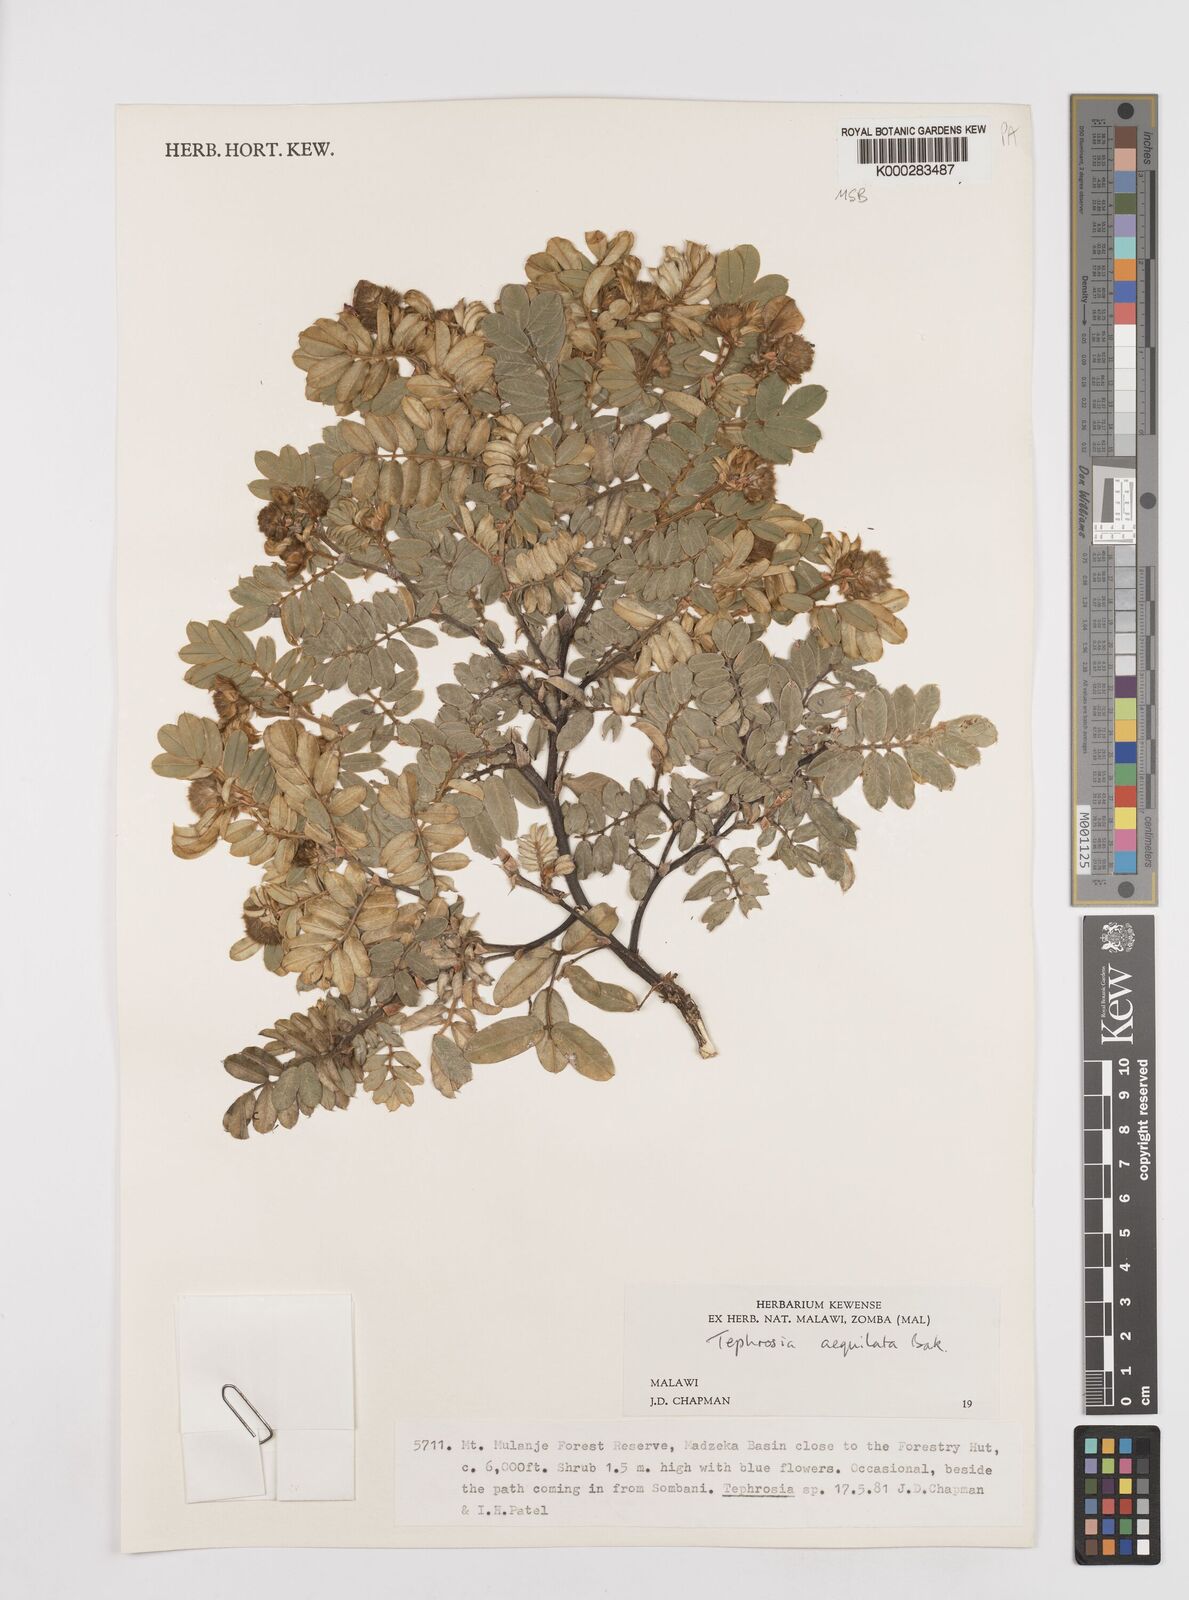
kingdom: Plantae
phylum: Tracheophyta
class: Magnoliopsida
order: Fabales
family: Fabaceae
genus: Tephrosia
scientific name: Tephrosia aequilata
